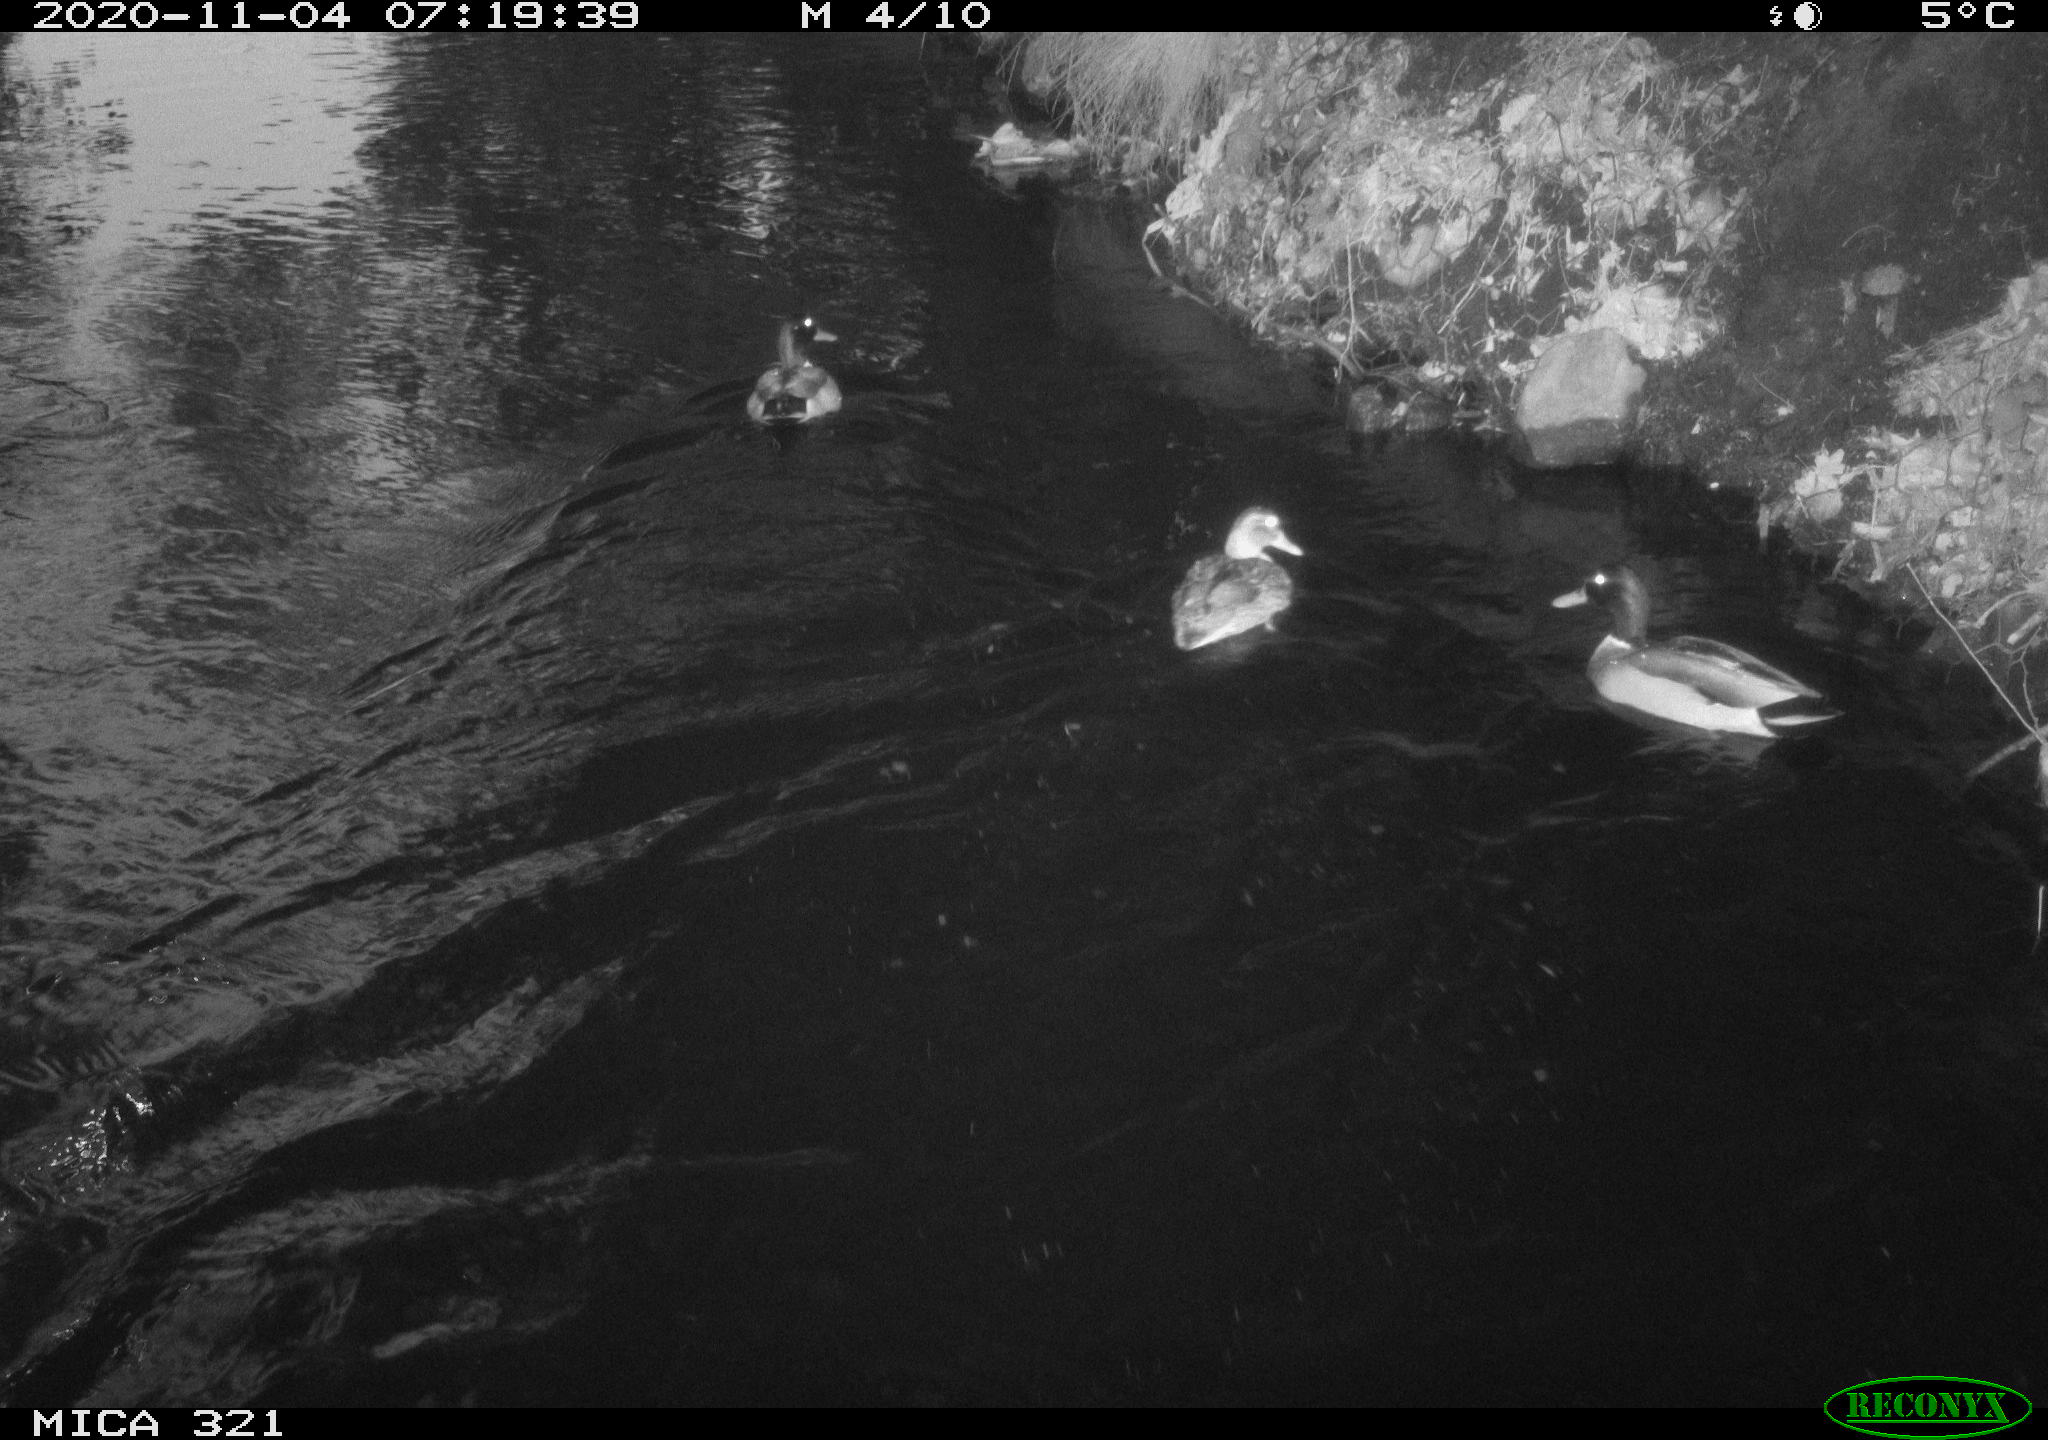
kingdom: Animalia
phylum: Chordata
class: Aves
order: Anseriformes
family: Anatidae
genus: Anas
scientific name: Anas platyrhynchos
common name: Mallard
